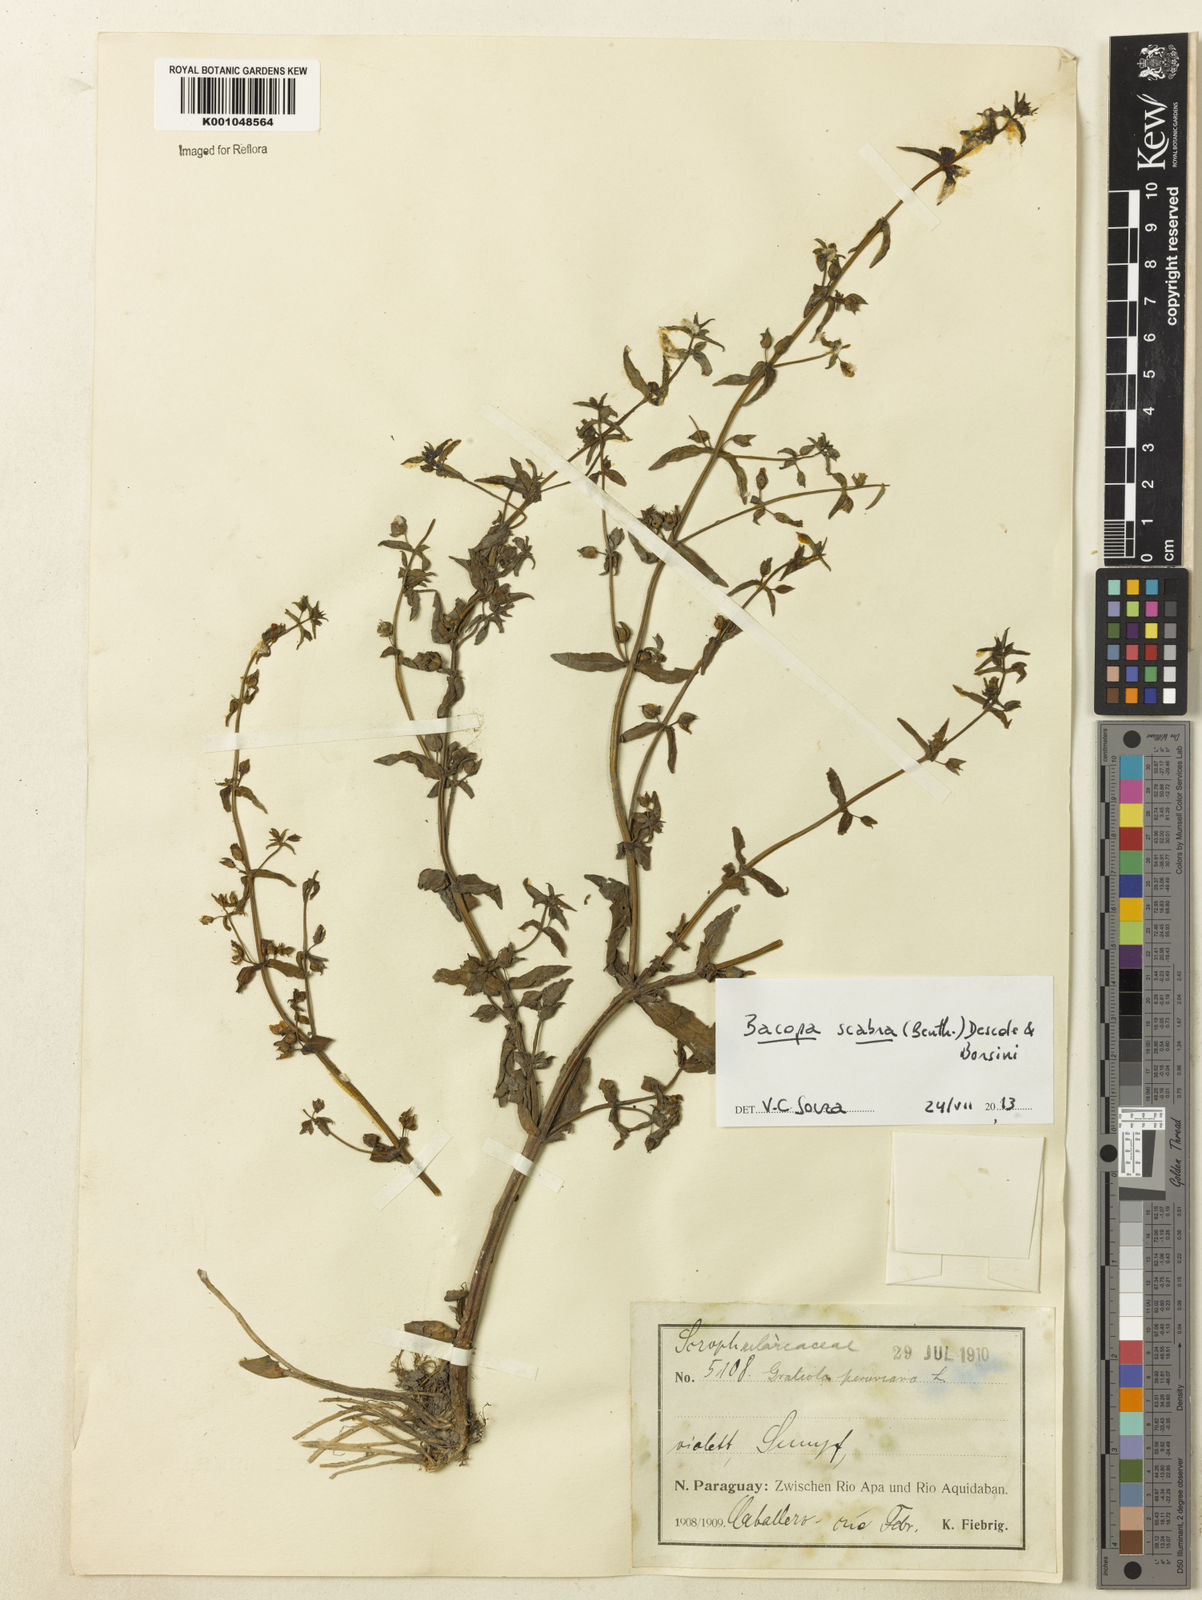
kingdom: Plantae
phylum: Tracheophyta
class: Magnoliopsida
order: Lamiales
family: Plantaginaceae
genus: Bacopa
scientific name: Bacopa laxiflora
